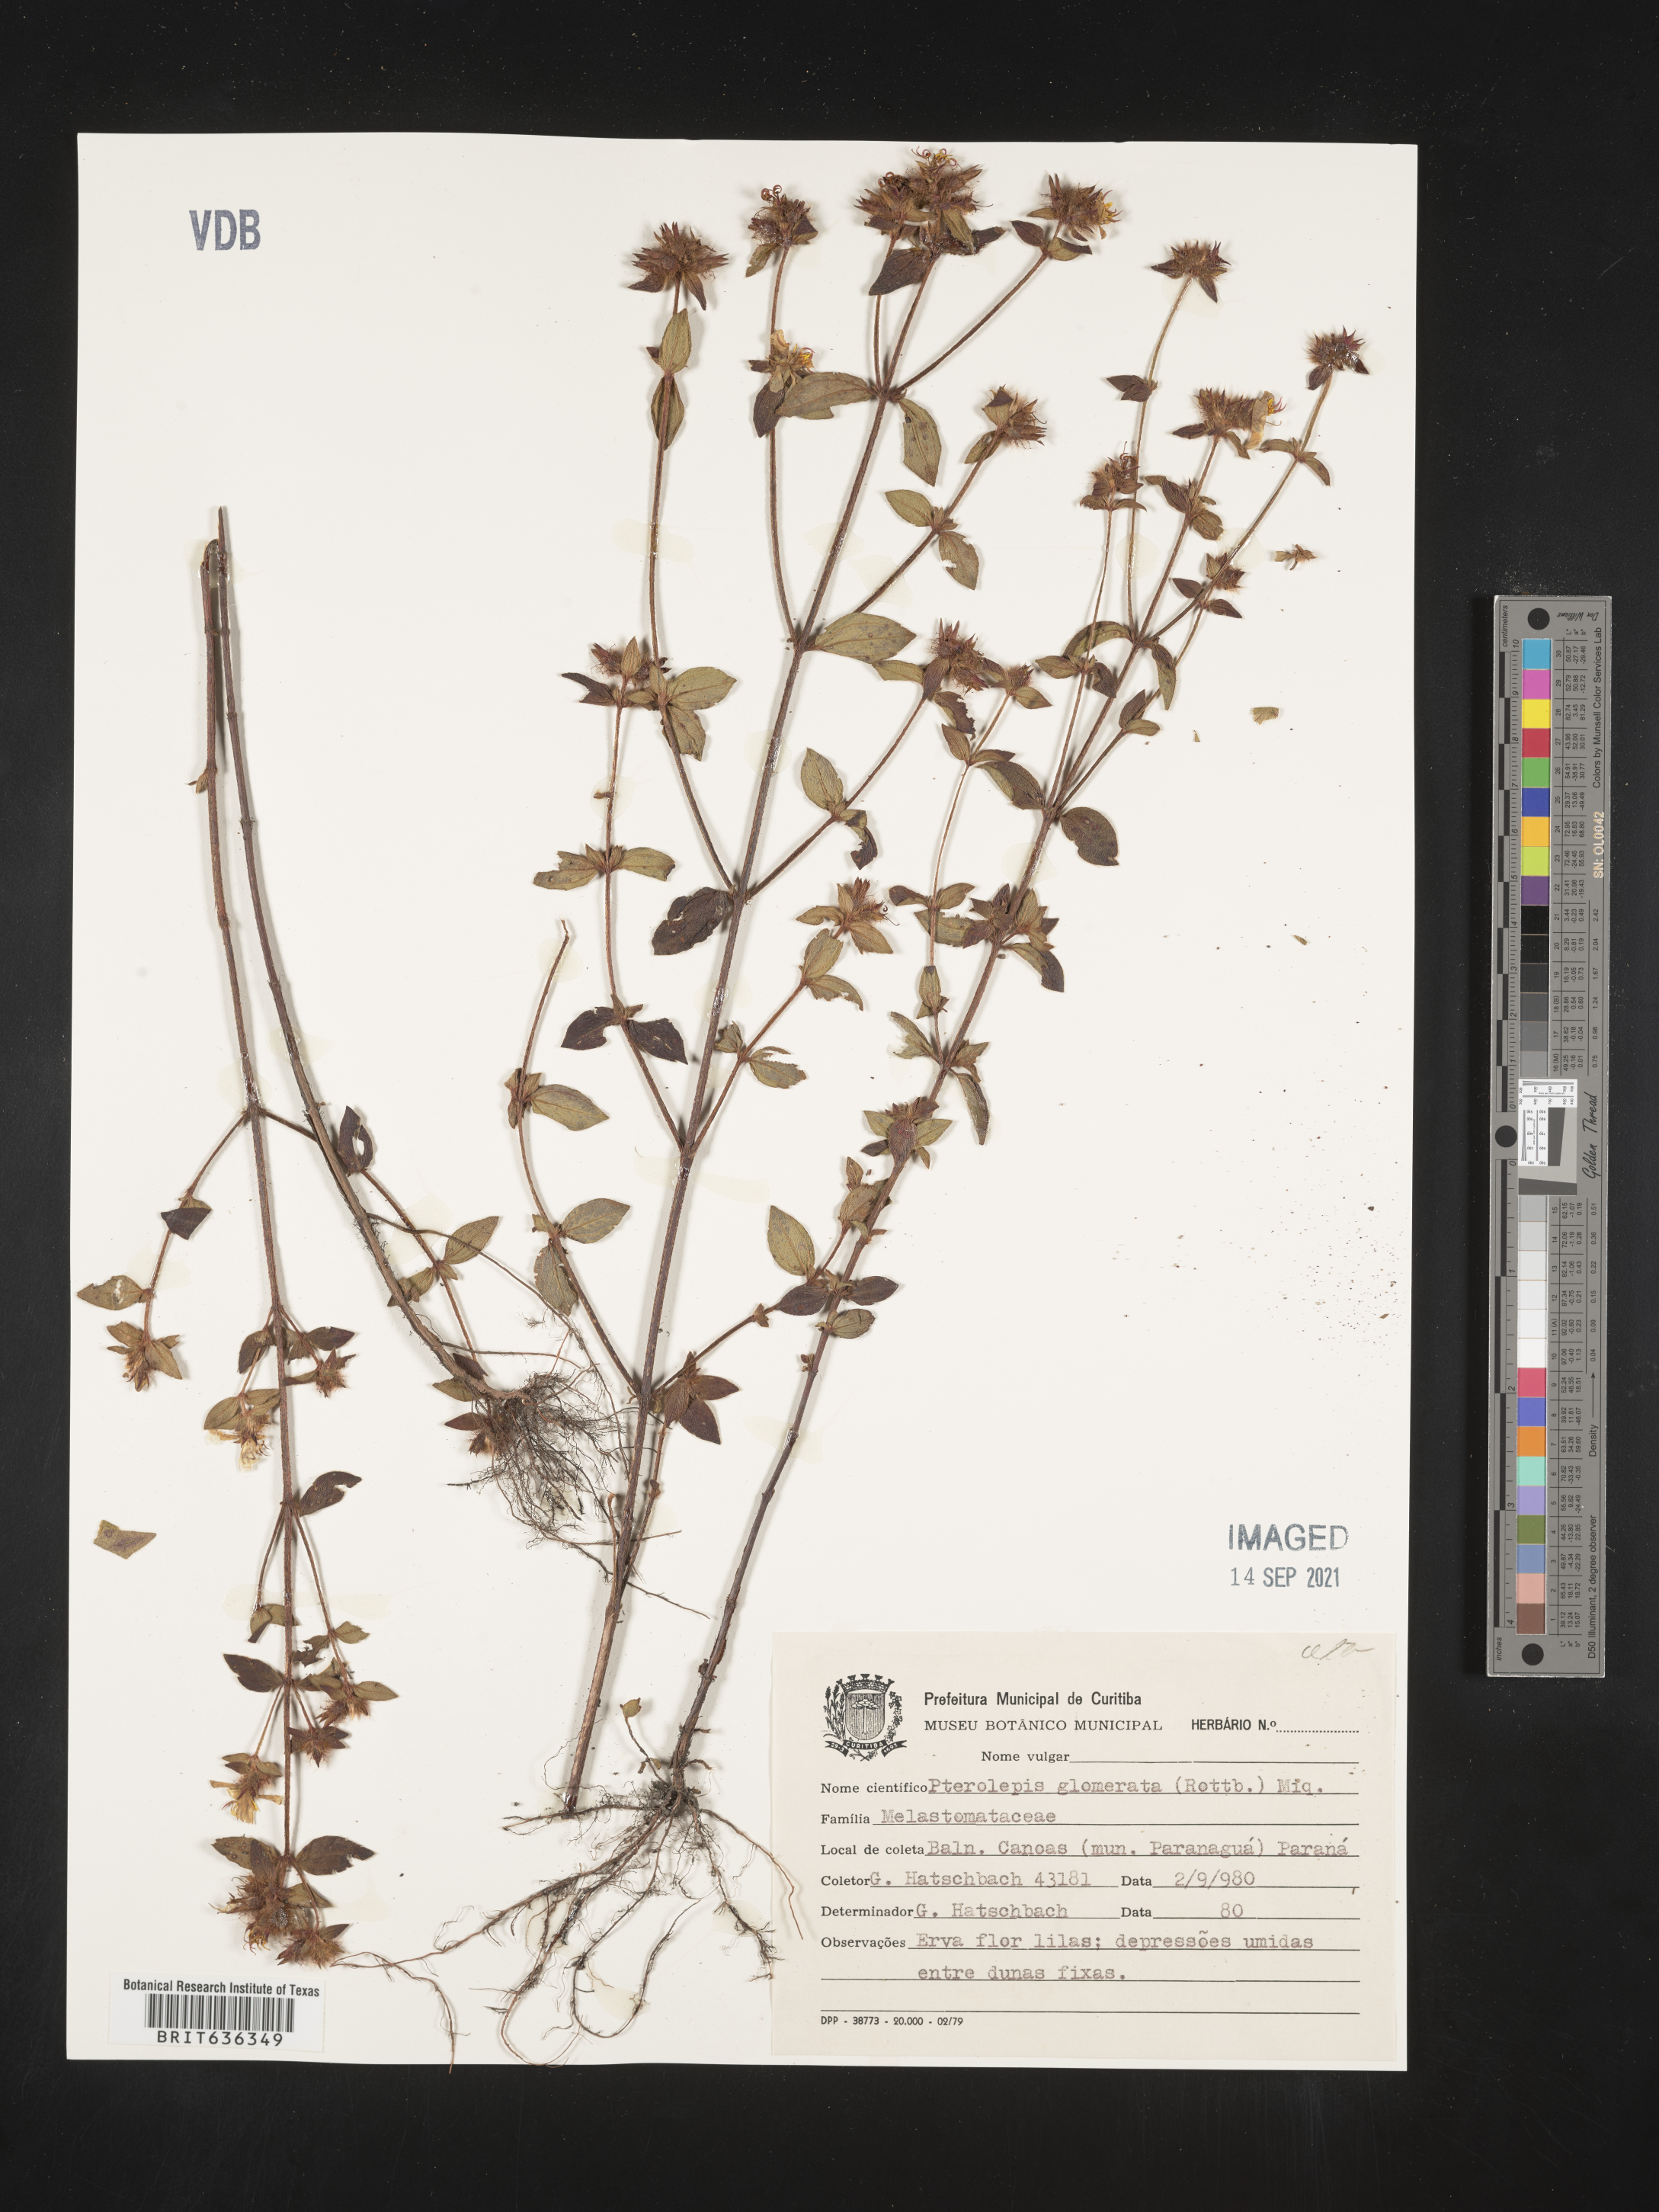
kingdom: Plantae
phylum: Tracheophyta
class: Magnoliopsida
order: Myrtales
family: Melastomataceae
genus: Pterolepis
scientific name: Pterolepis
